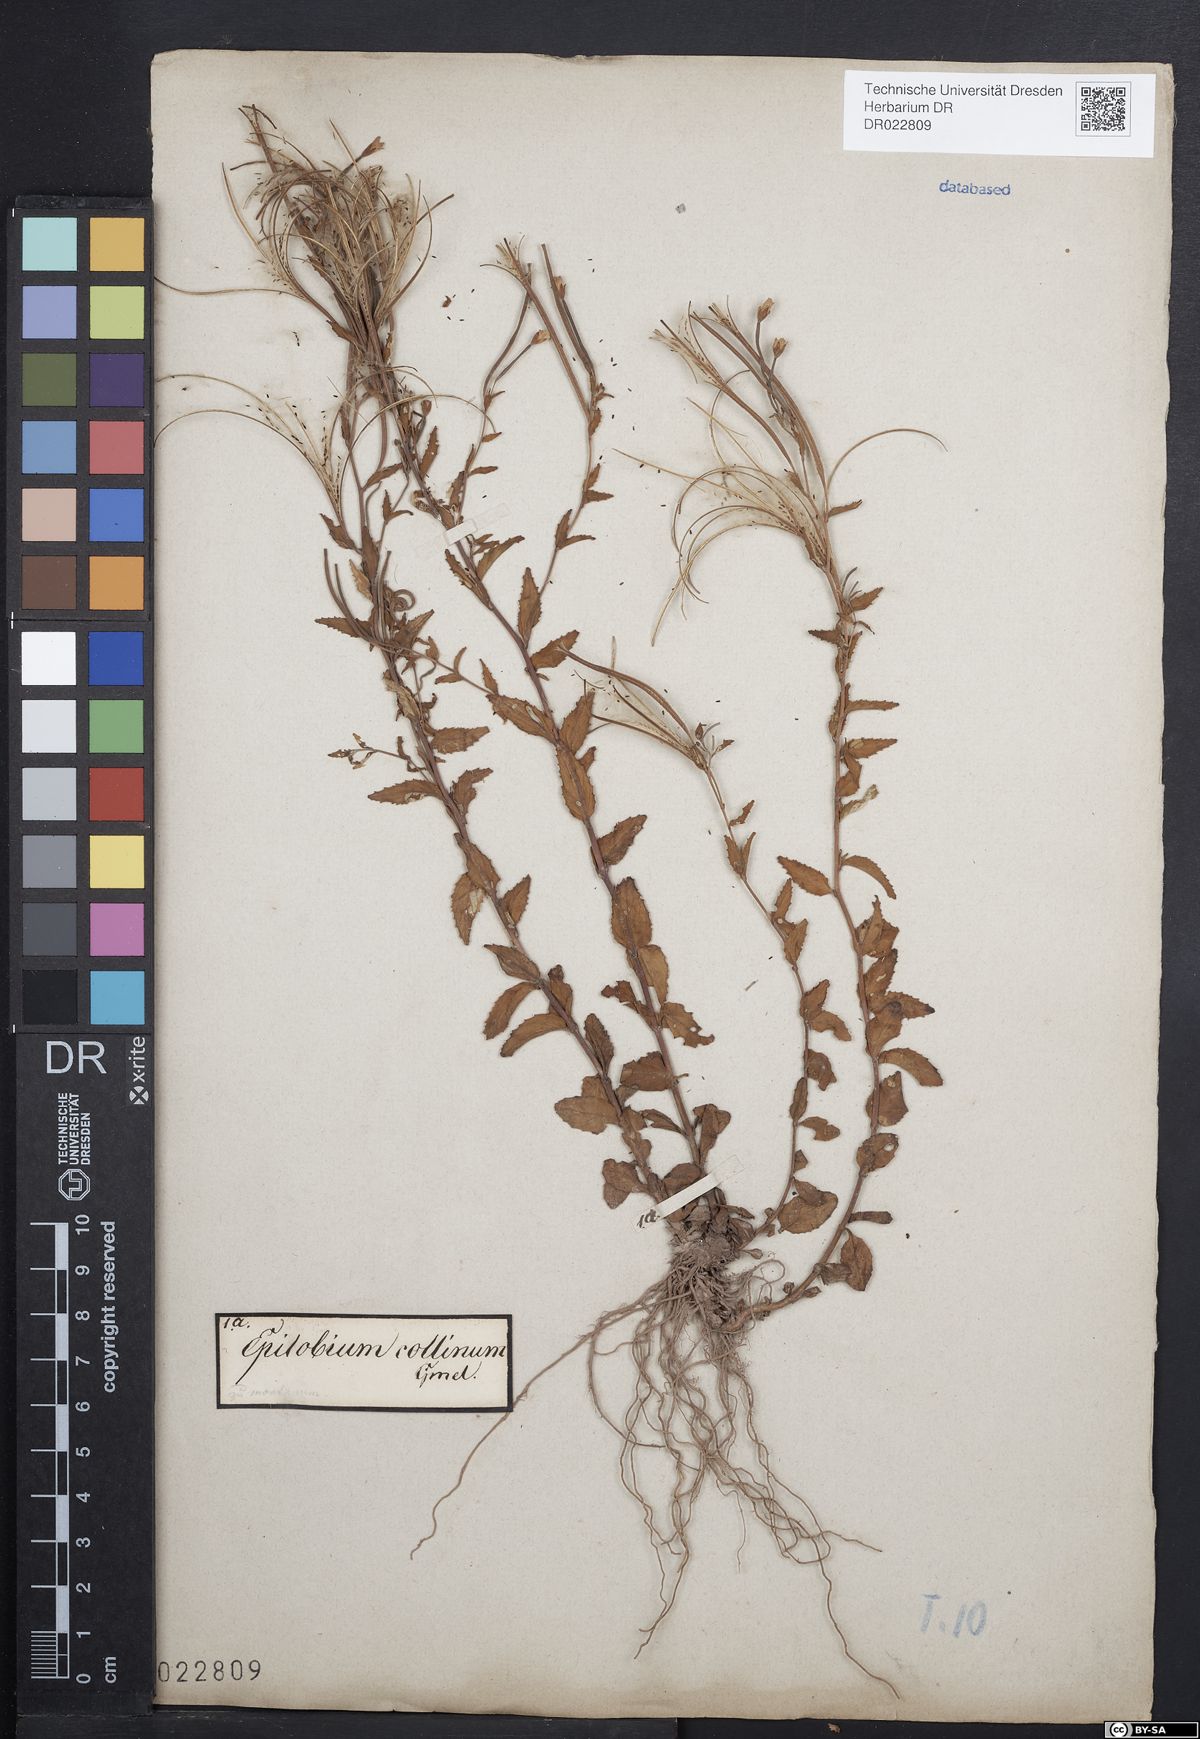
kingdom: Plantae
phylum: Tracheophyta
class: Magnoliopsida
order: Myrtales
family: Onagraceae
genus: Epilobium
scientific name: Epilobium collinum
